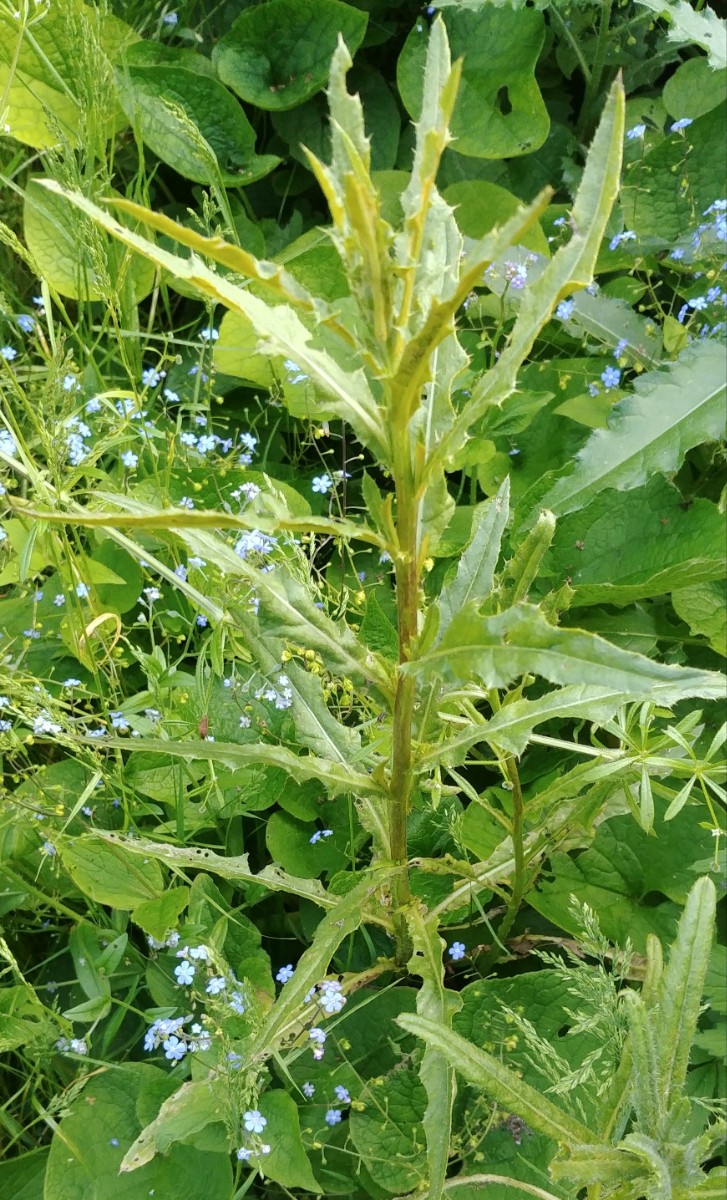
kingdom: Fungi
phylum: Basidiomycota
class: Pucciniomycetes
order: Pucciniales
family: Pucciniaceae
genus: Puccinia
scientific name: Puccinia suaveolens
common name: tidsel-tvecellerust
